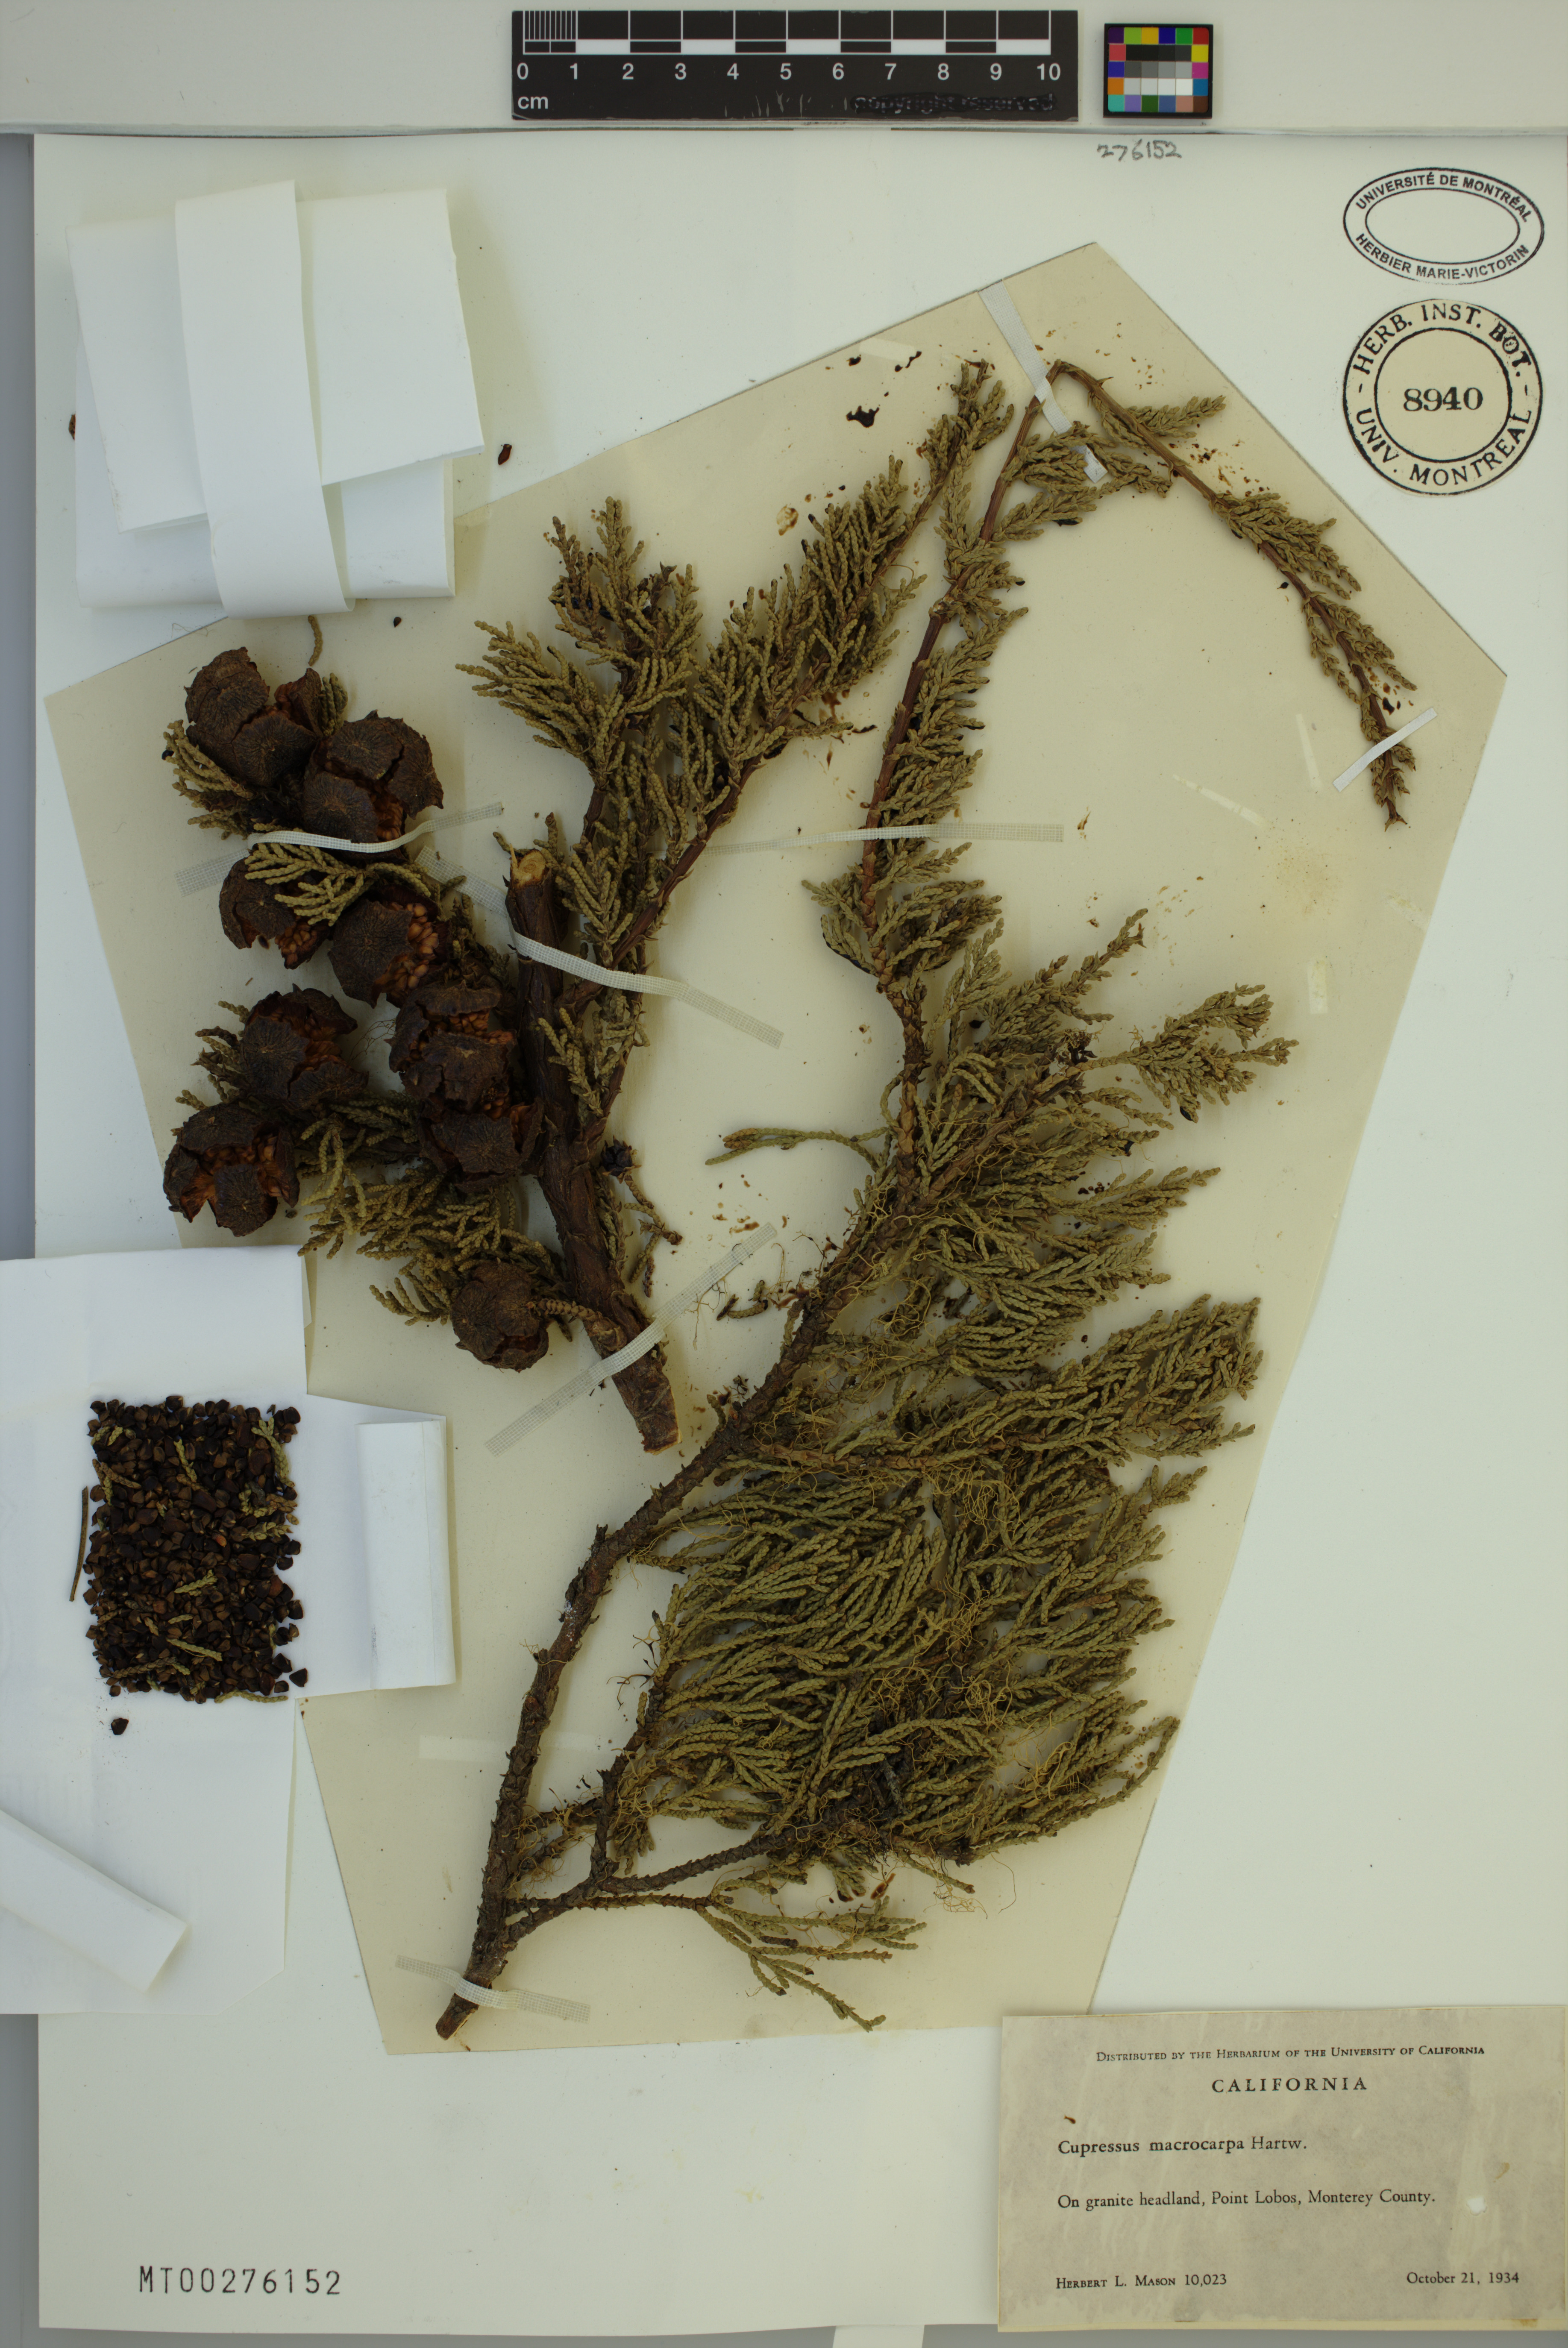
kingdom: Plantae
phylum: Tracheophyta
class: Pinopsida
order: Pinales
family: Cupressaceae
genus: Cupressus
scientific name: Cupressus macrocarpa
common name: Monterey cypress
